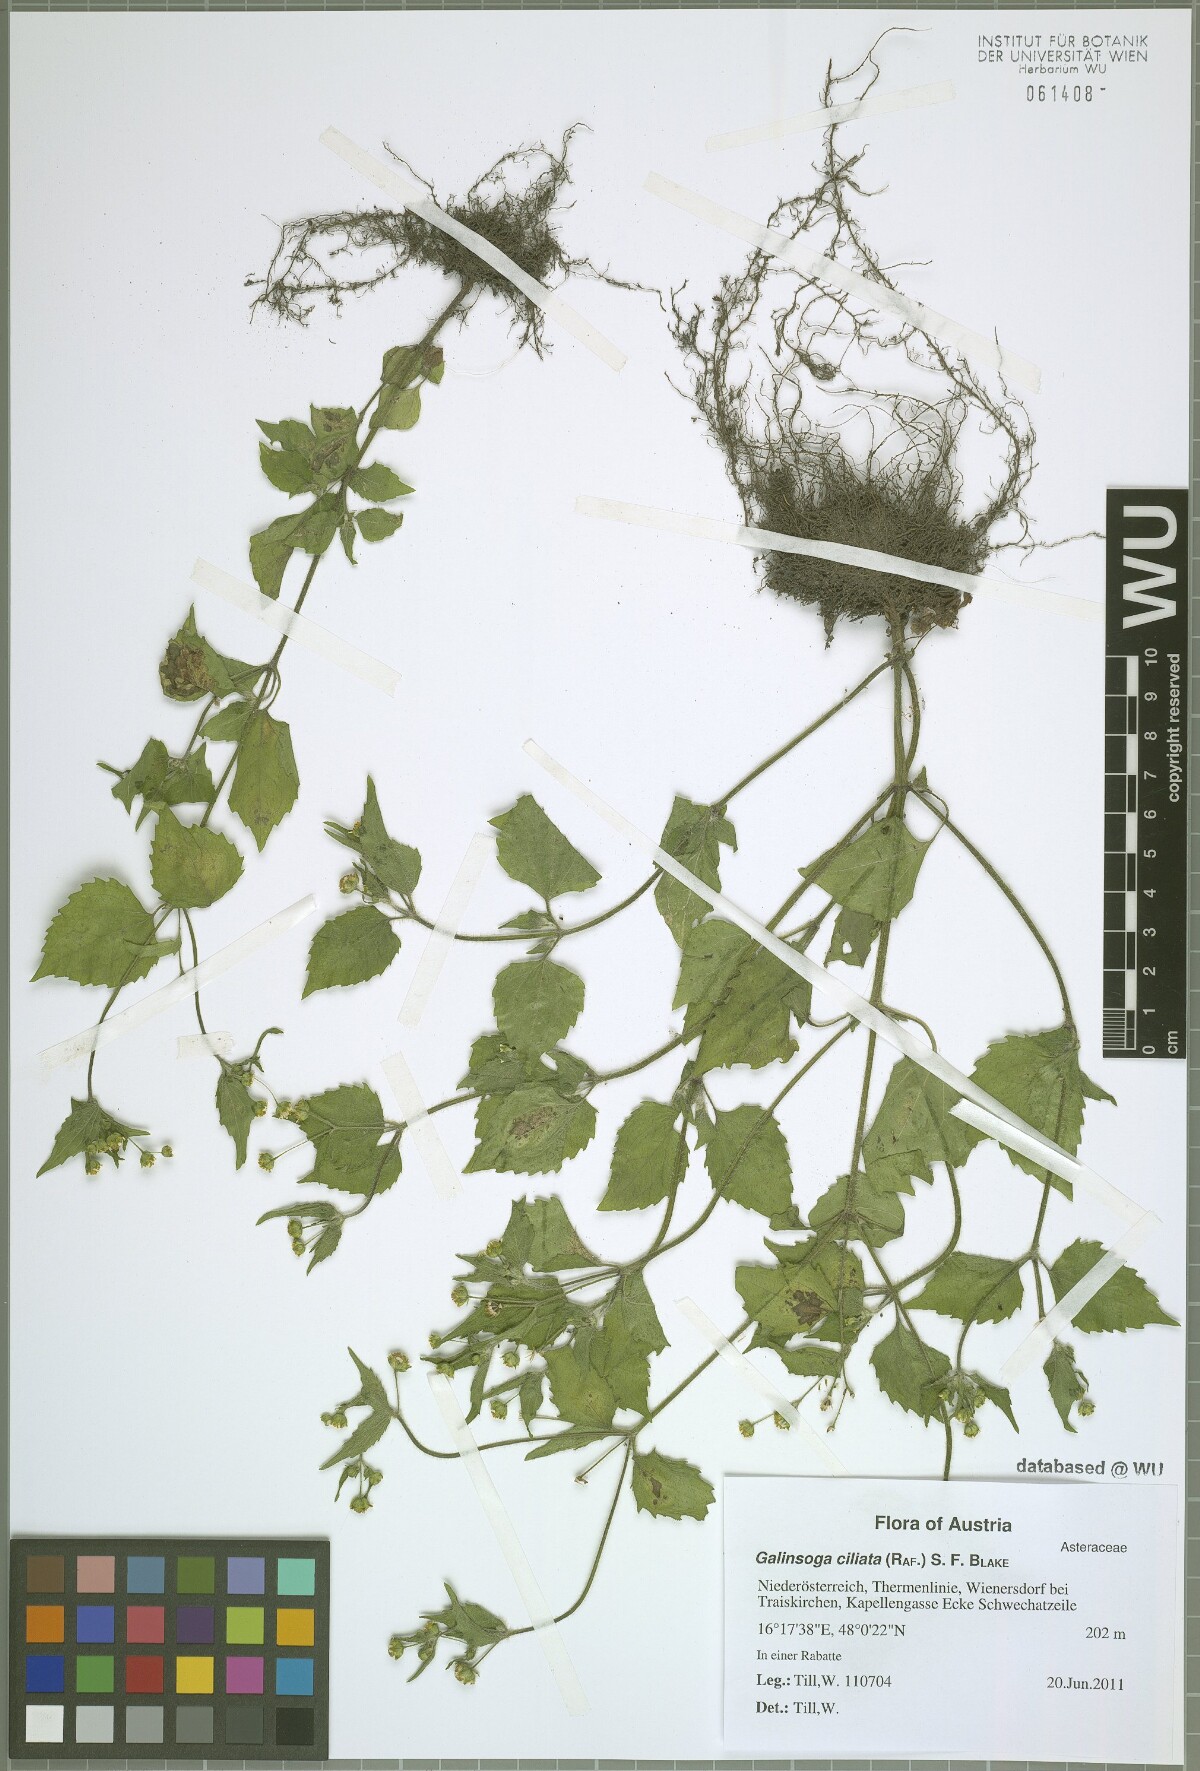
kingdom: Plantae
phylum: Tracheophyta
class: Magnoliopsida
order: Asterales
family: Asteraceae
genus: Galinsoga
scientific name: Galinsoga quadriradiata
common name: Shaggy soldier
